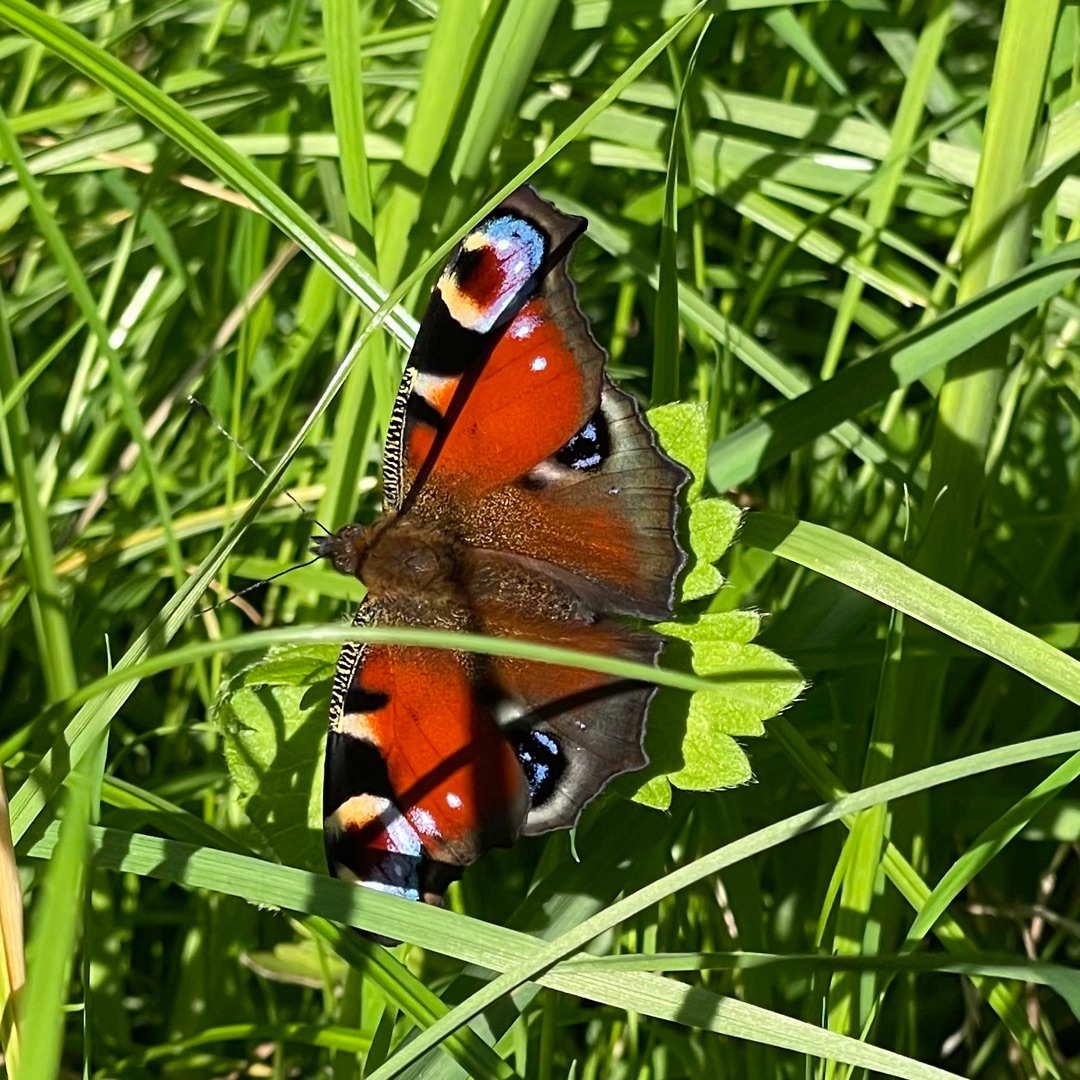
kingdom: Animalia
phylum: Arthropoda
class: Insecta
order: Lepidoptera
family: Nymphalidae
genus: Aglais
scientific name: Aglais io
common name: Dagpåfugleøje
